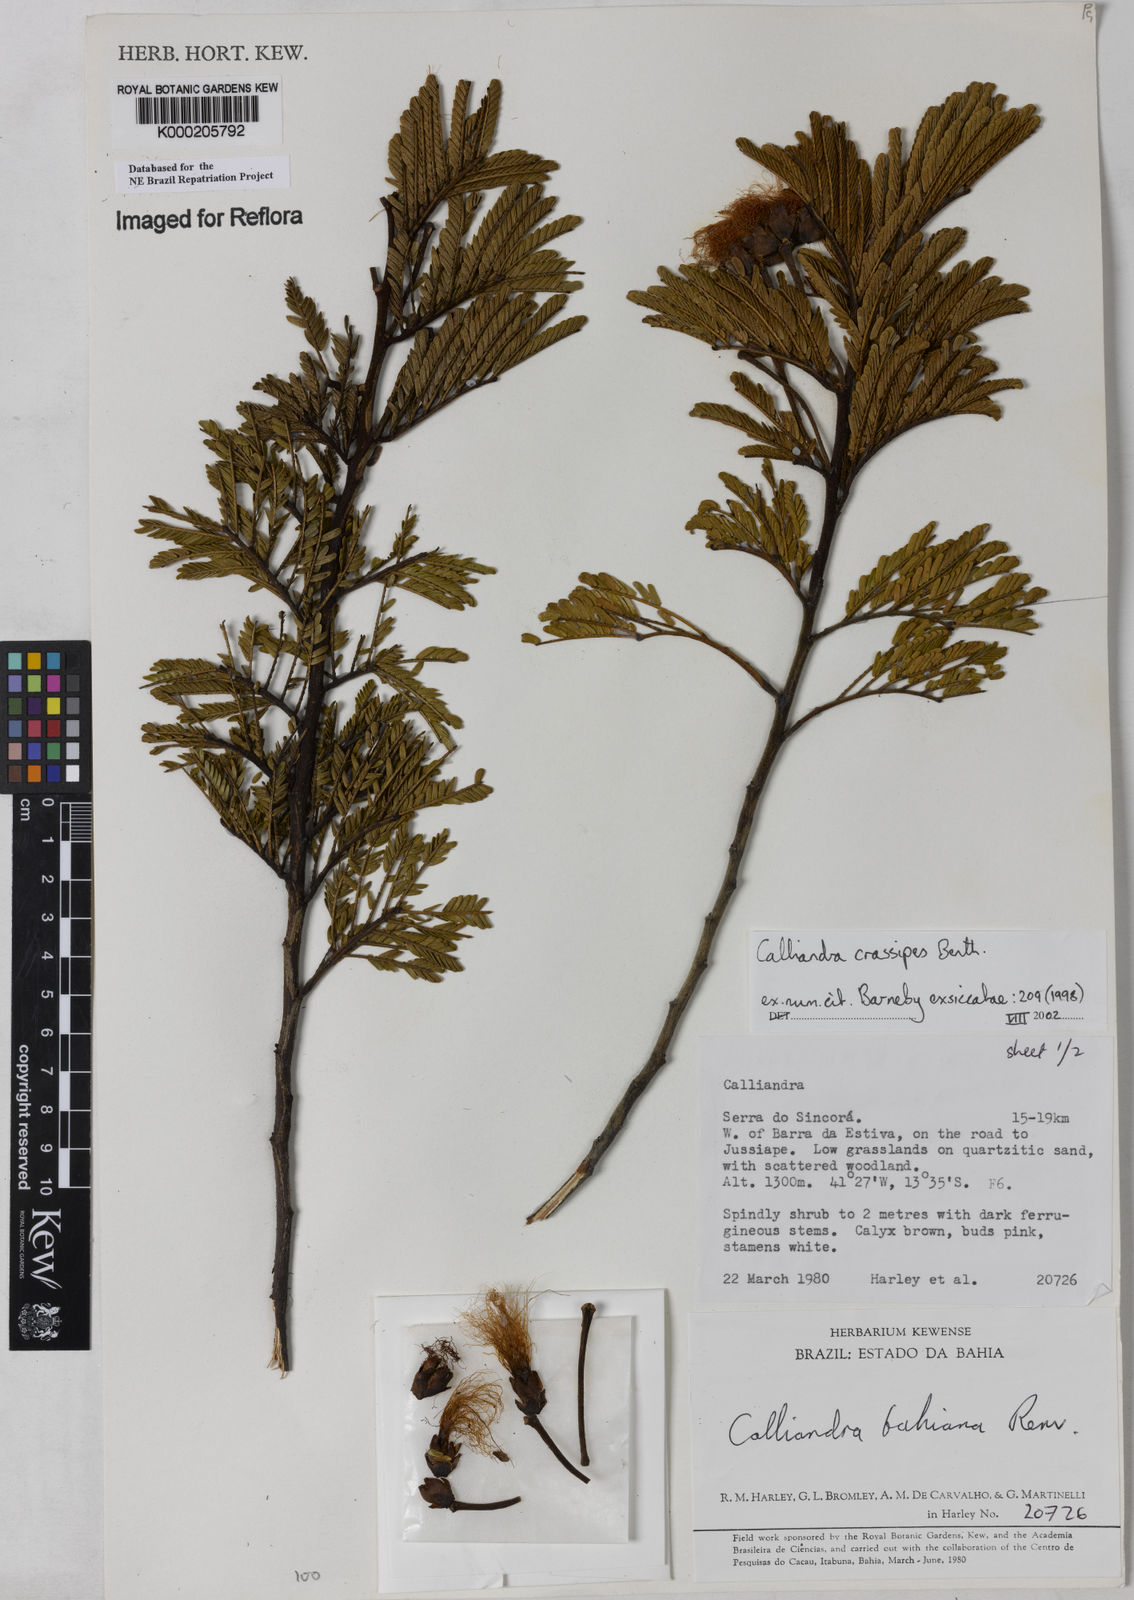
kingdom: Plantae
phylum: Tracheophyta
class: Magnoliopsida
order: Fabales
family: Fabaceae
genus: Calliandra
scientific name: Calliandra crassipes
